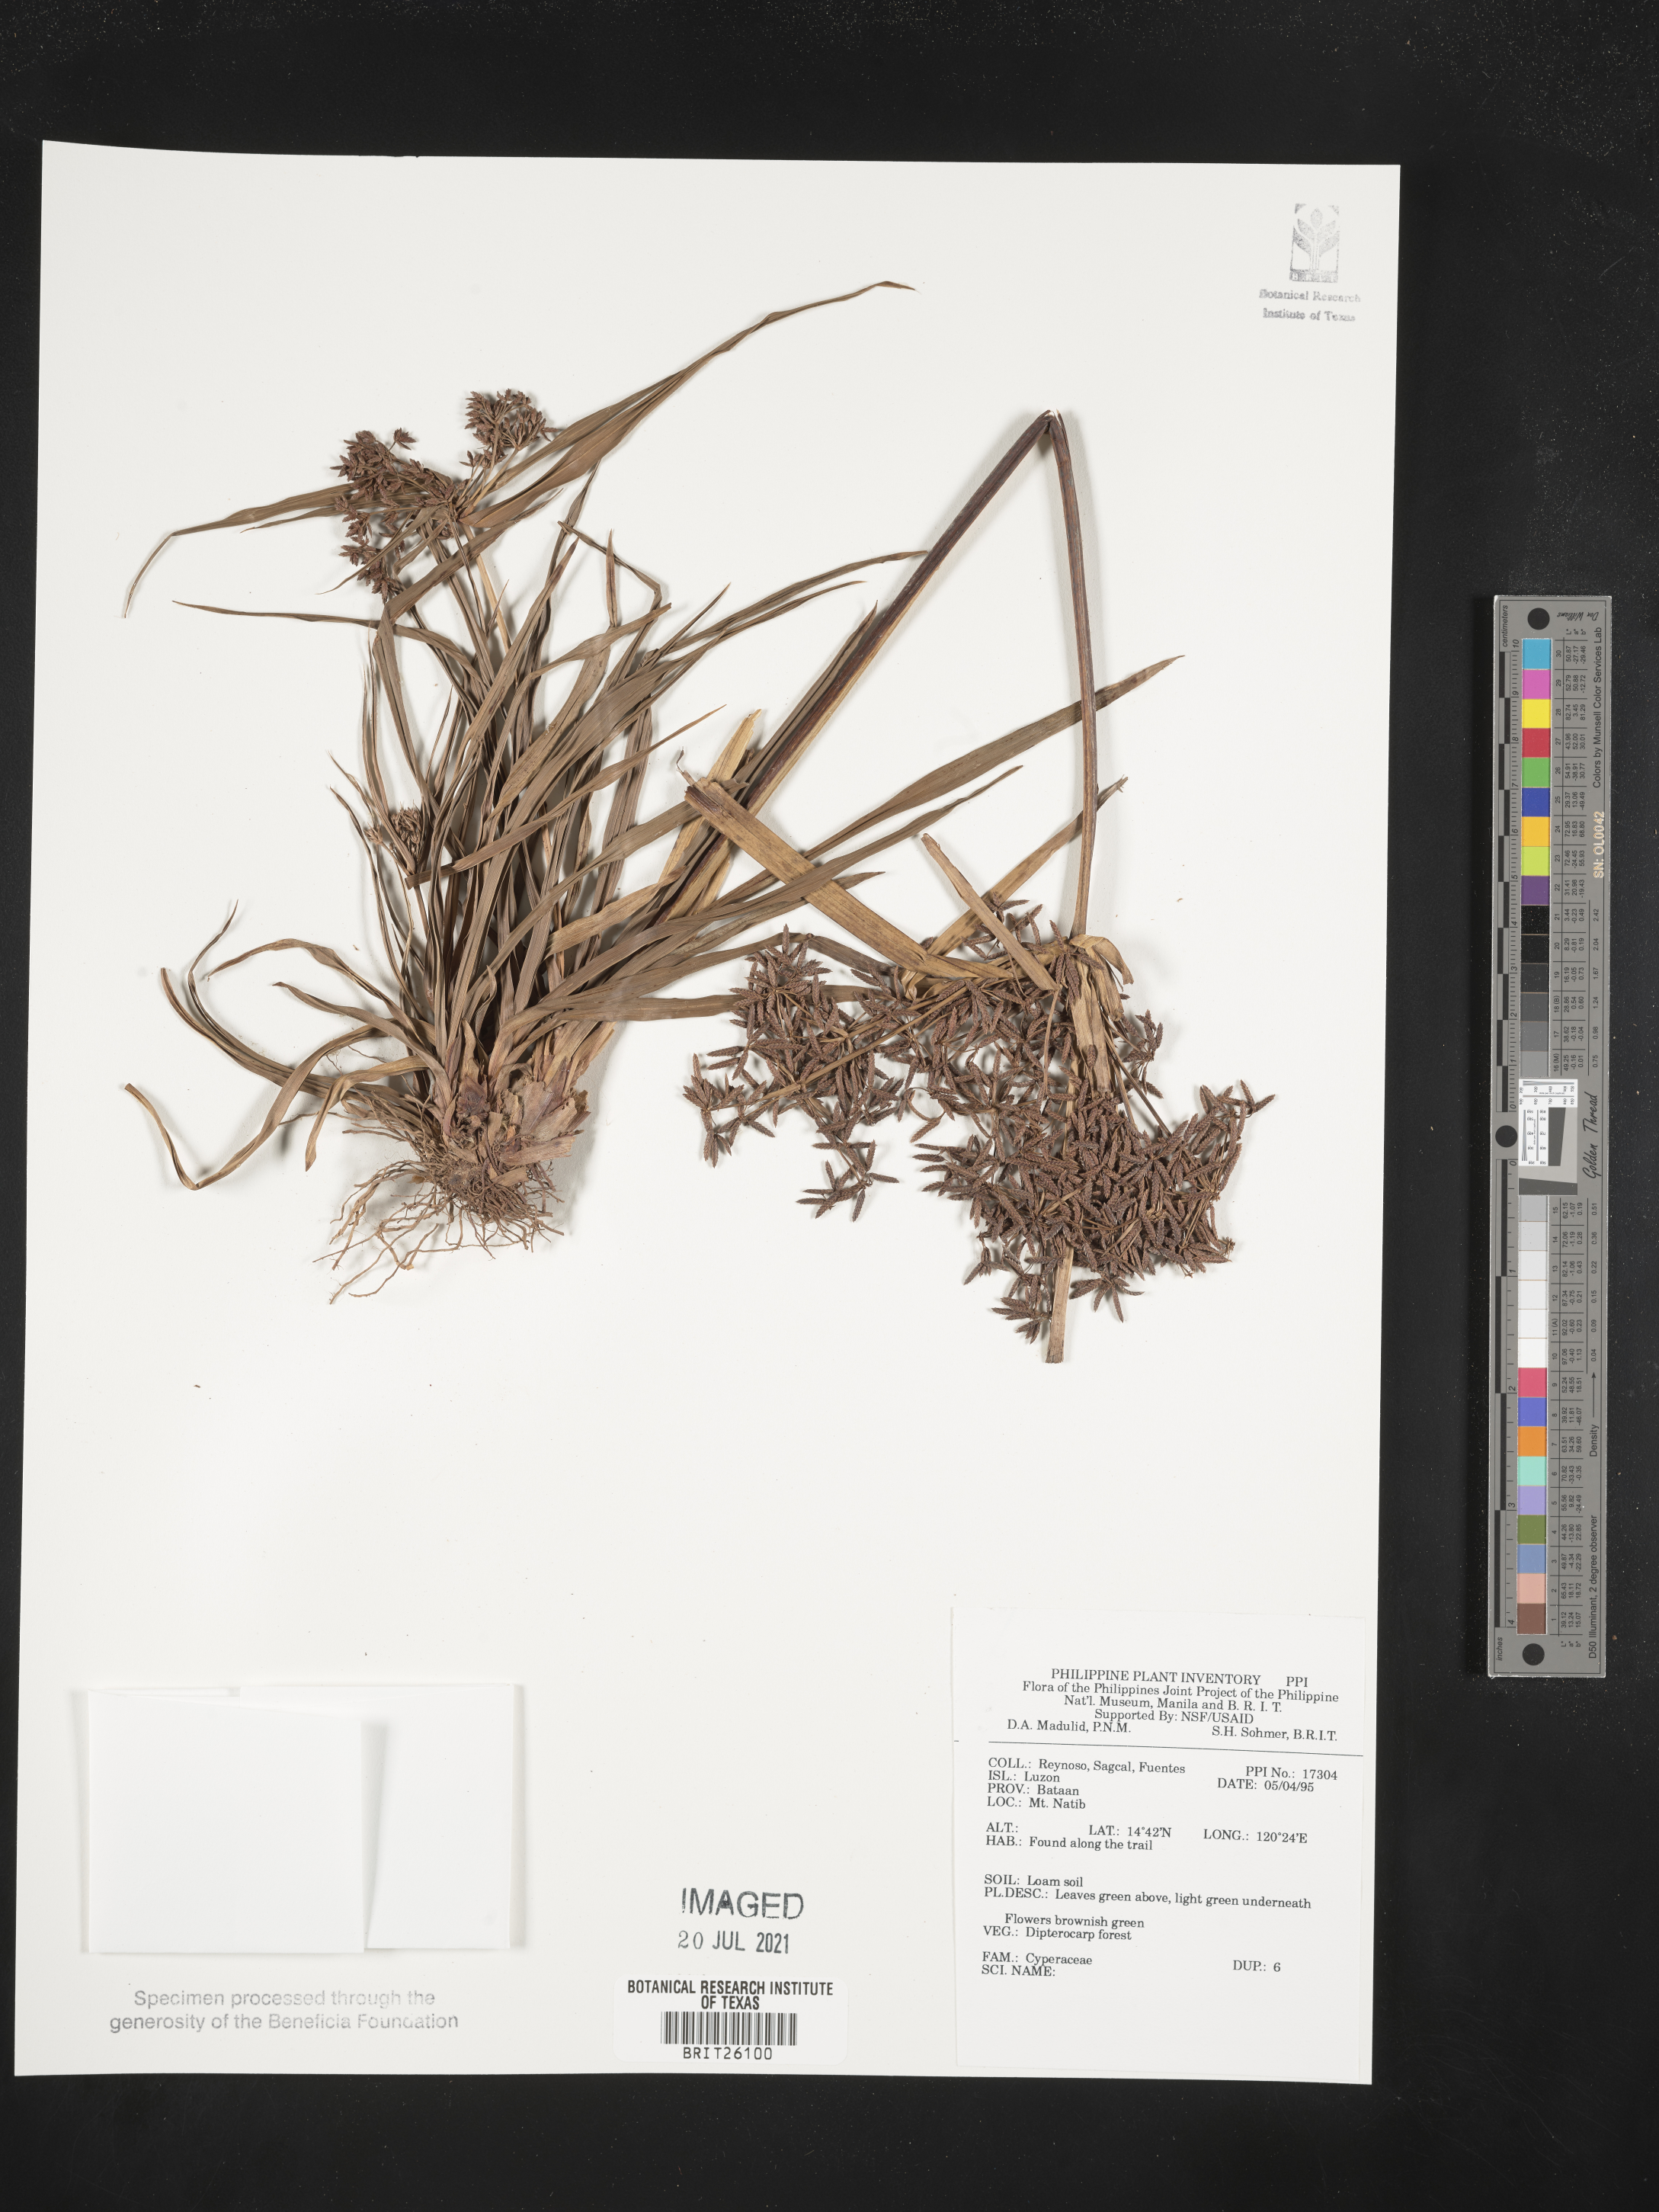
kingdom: Plantae
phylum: Tracheophyta
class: Liliopsida
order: Poales
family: Cyperaceae
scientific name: Cyperaceae
